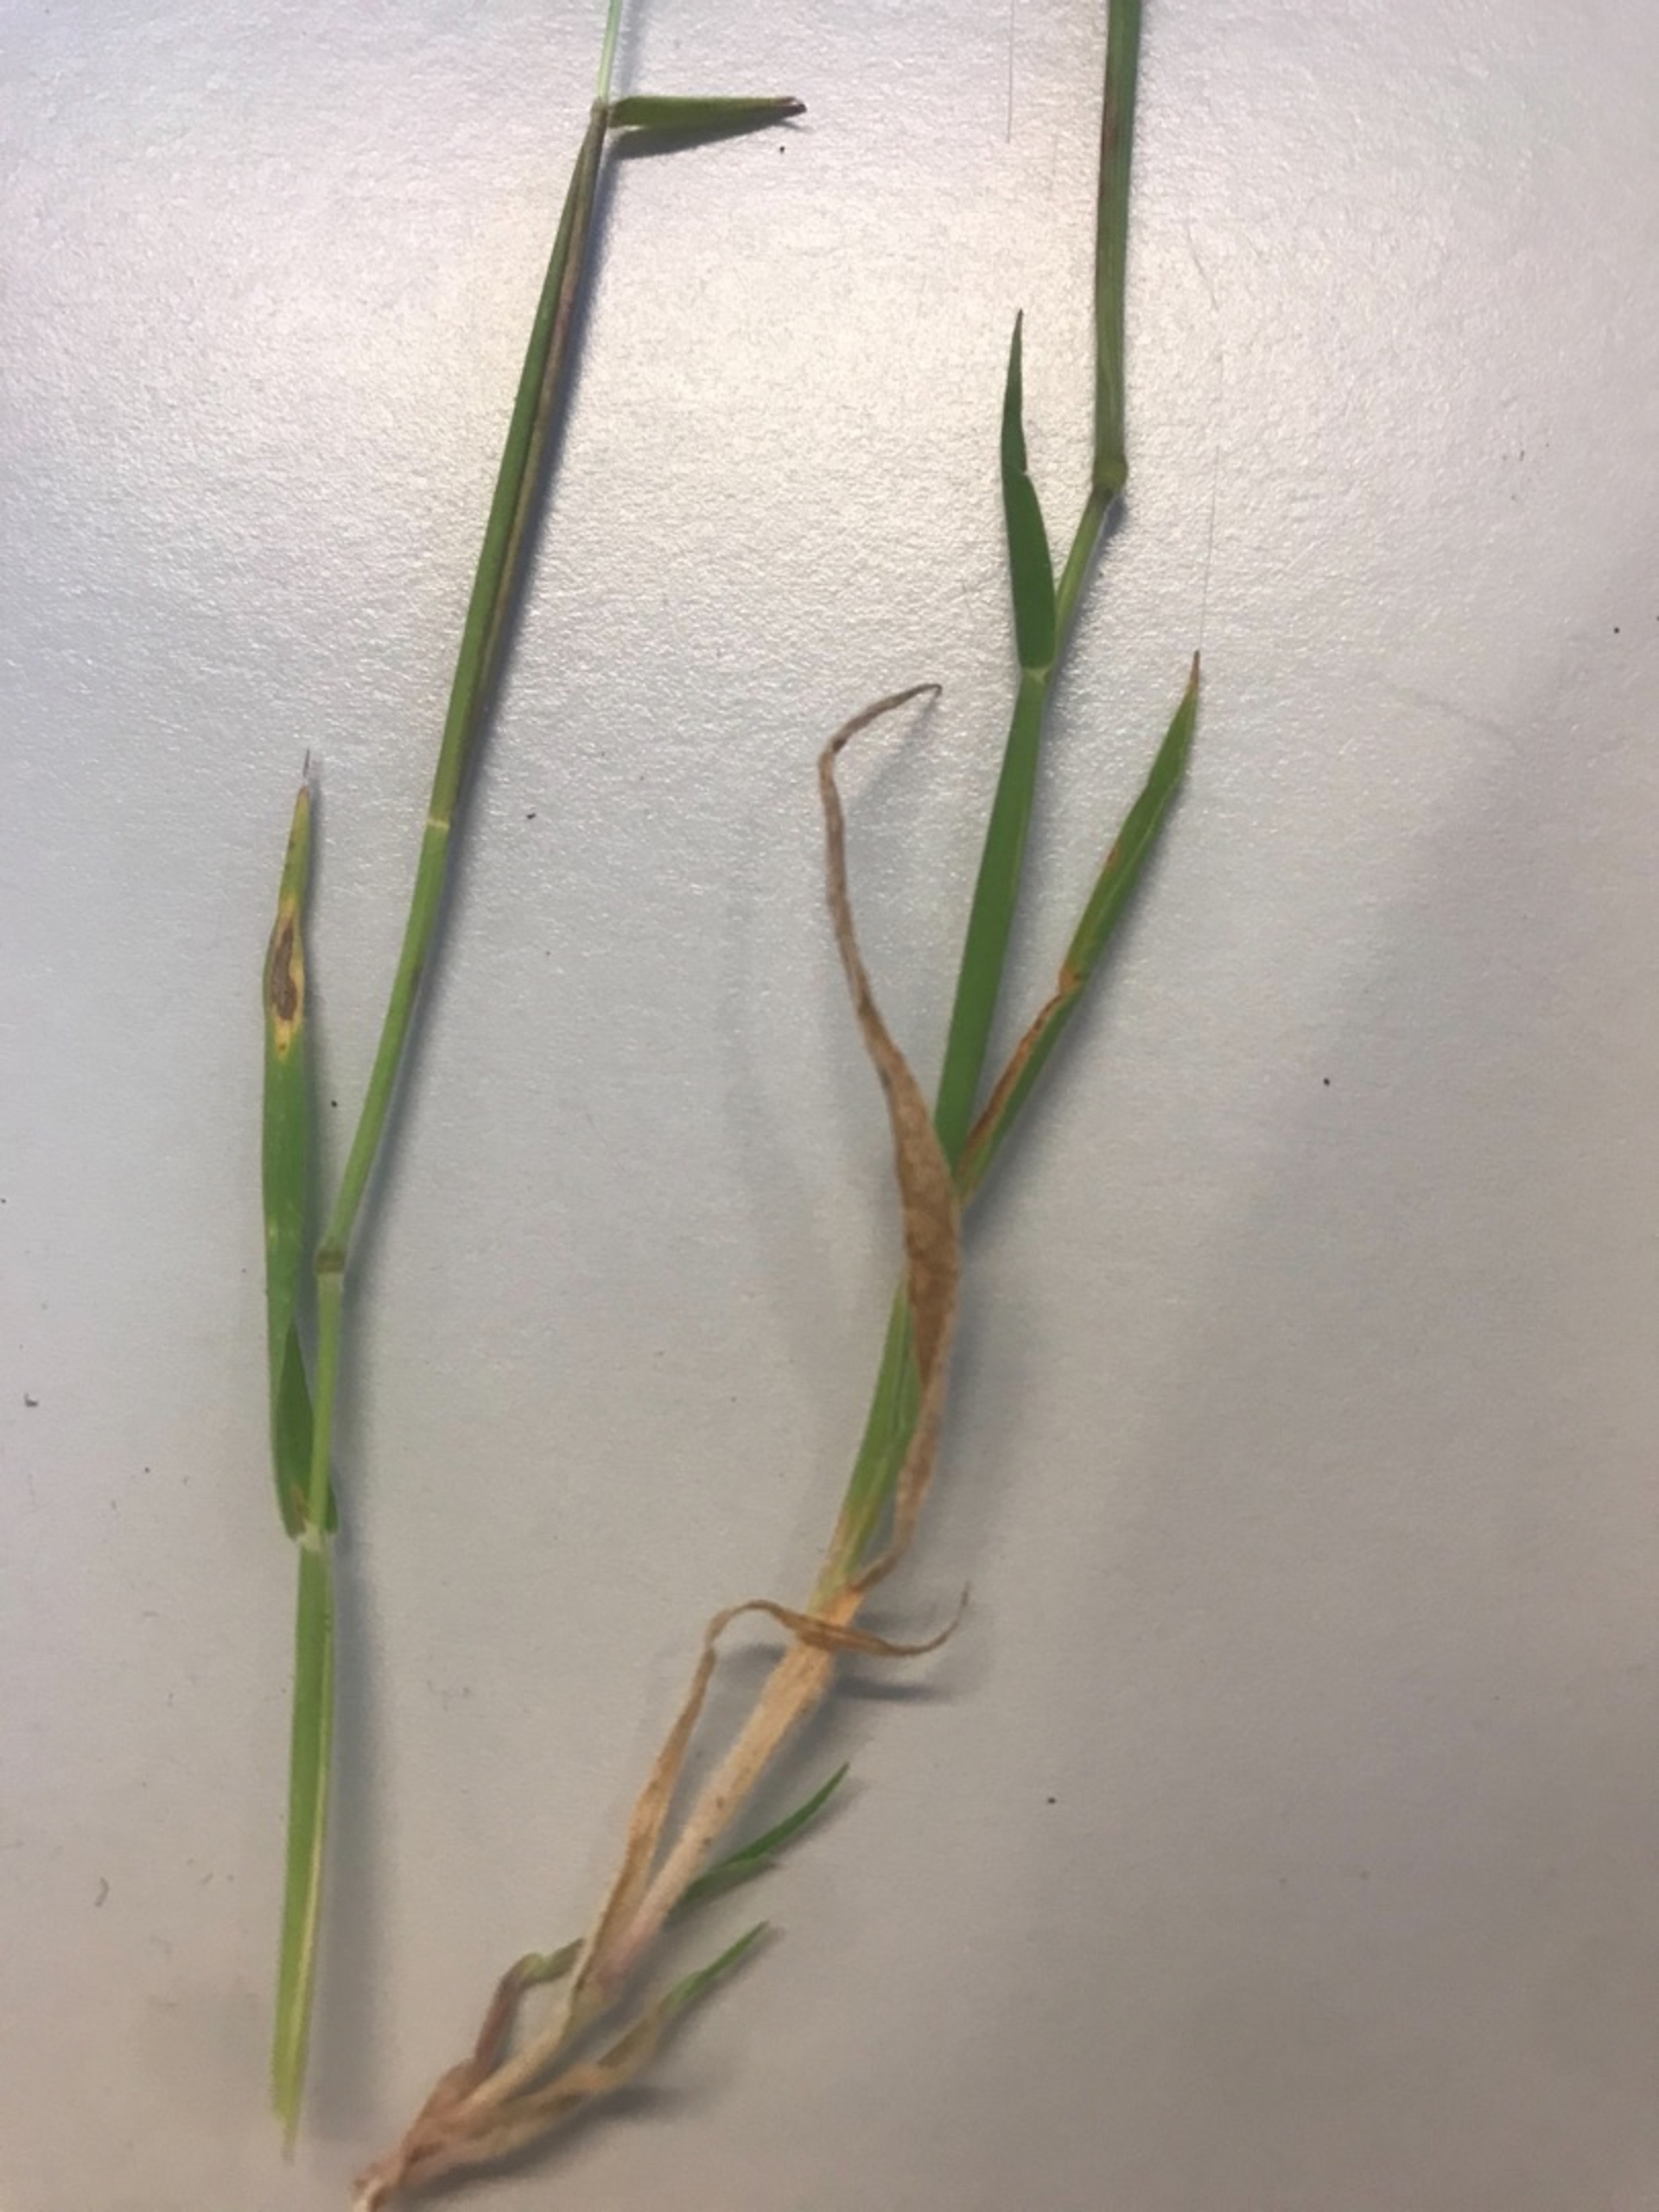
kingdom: Plantae
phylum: Tracheophyta
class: Liliopsida
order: Poales
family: Poaceae
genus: Holcus
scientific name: Holcus lanatus
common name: Fløjlsgræs
